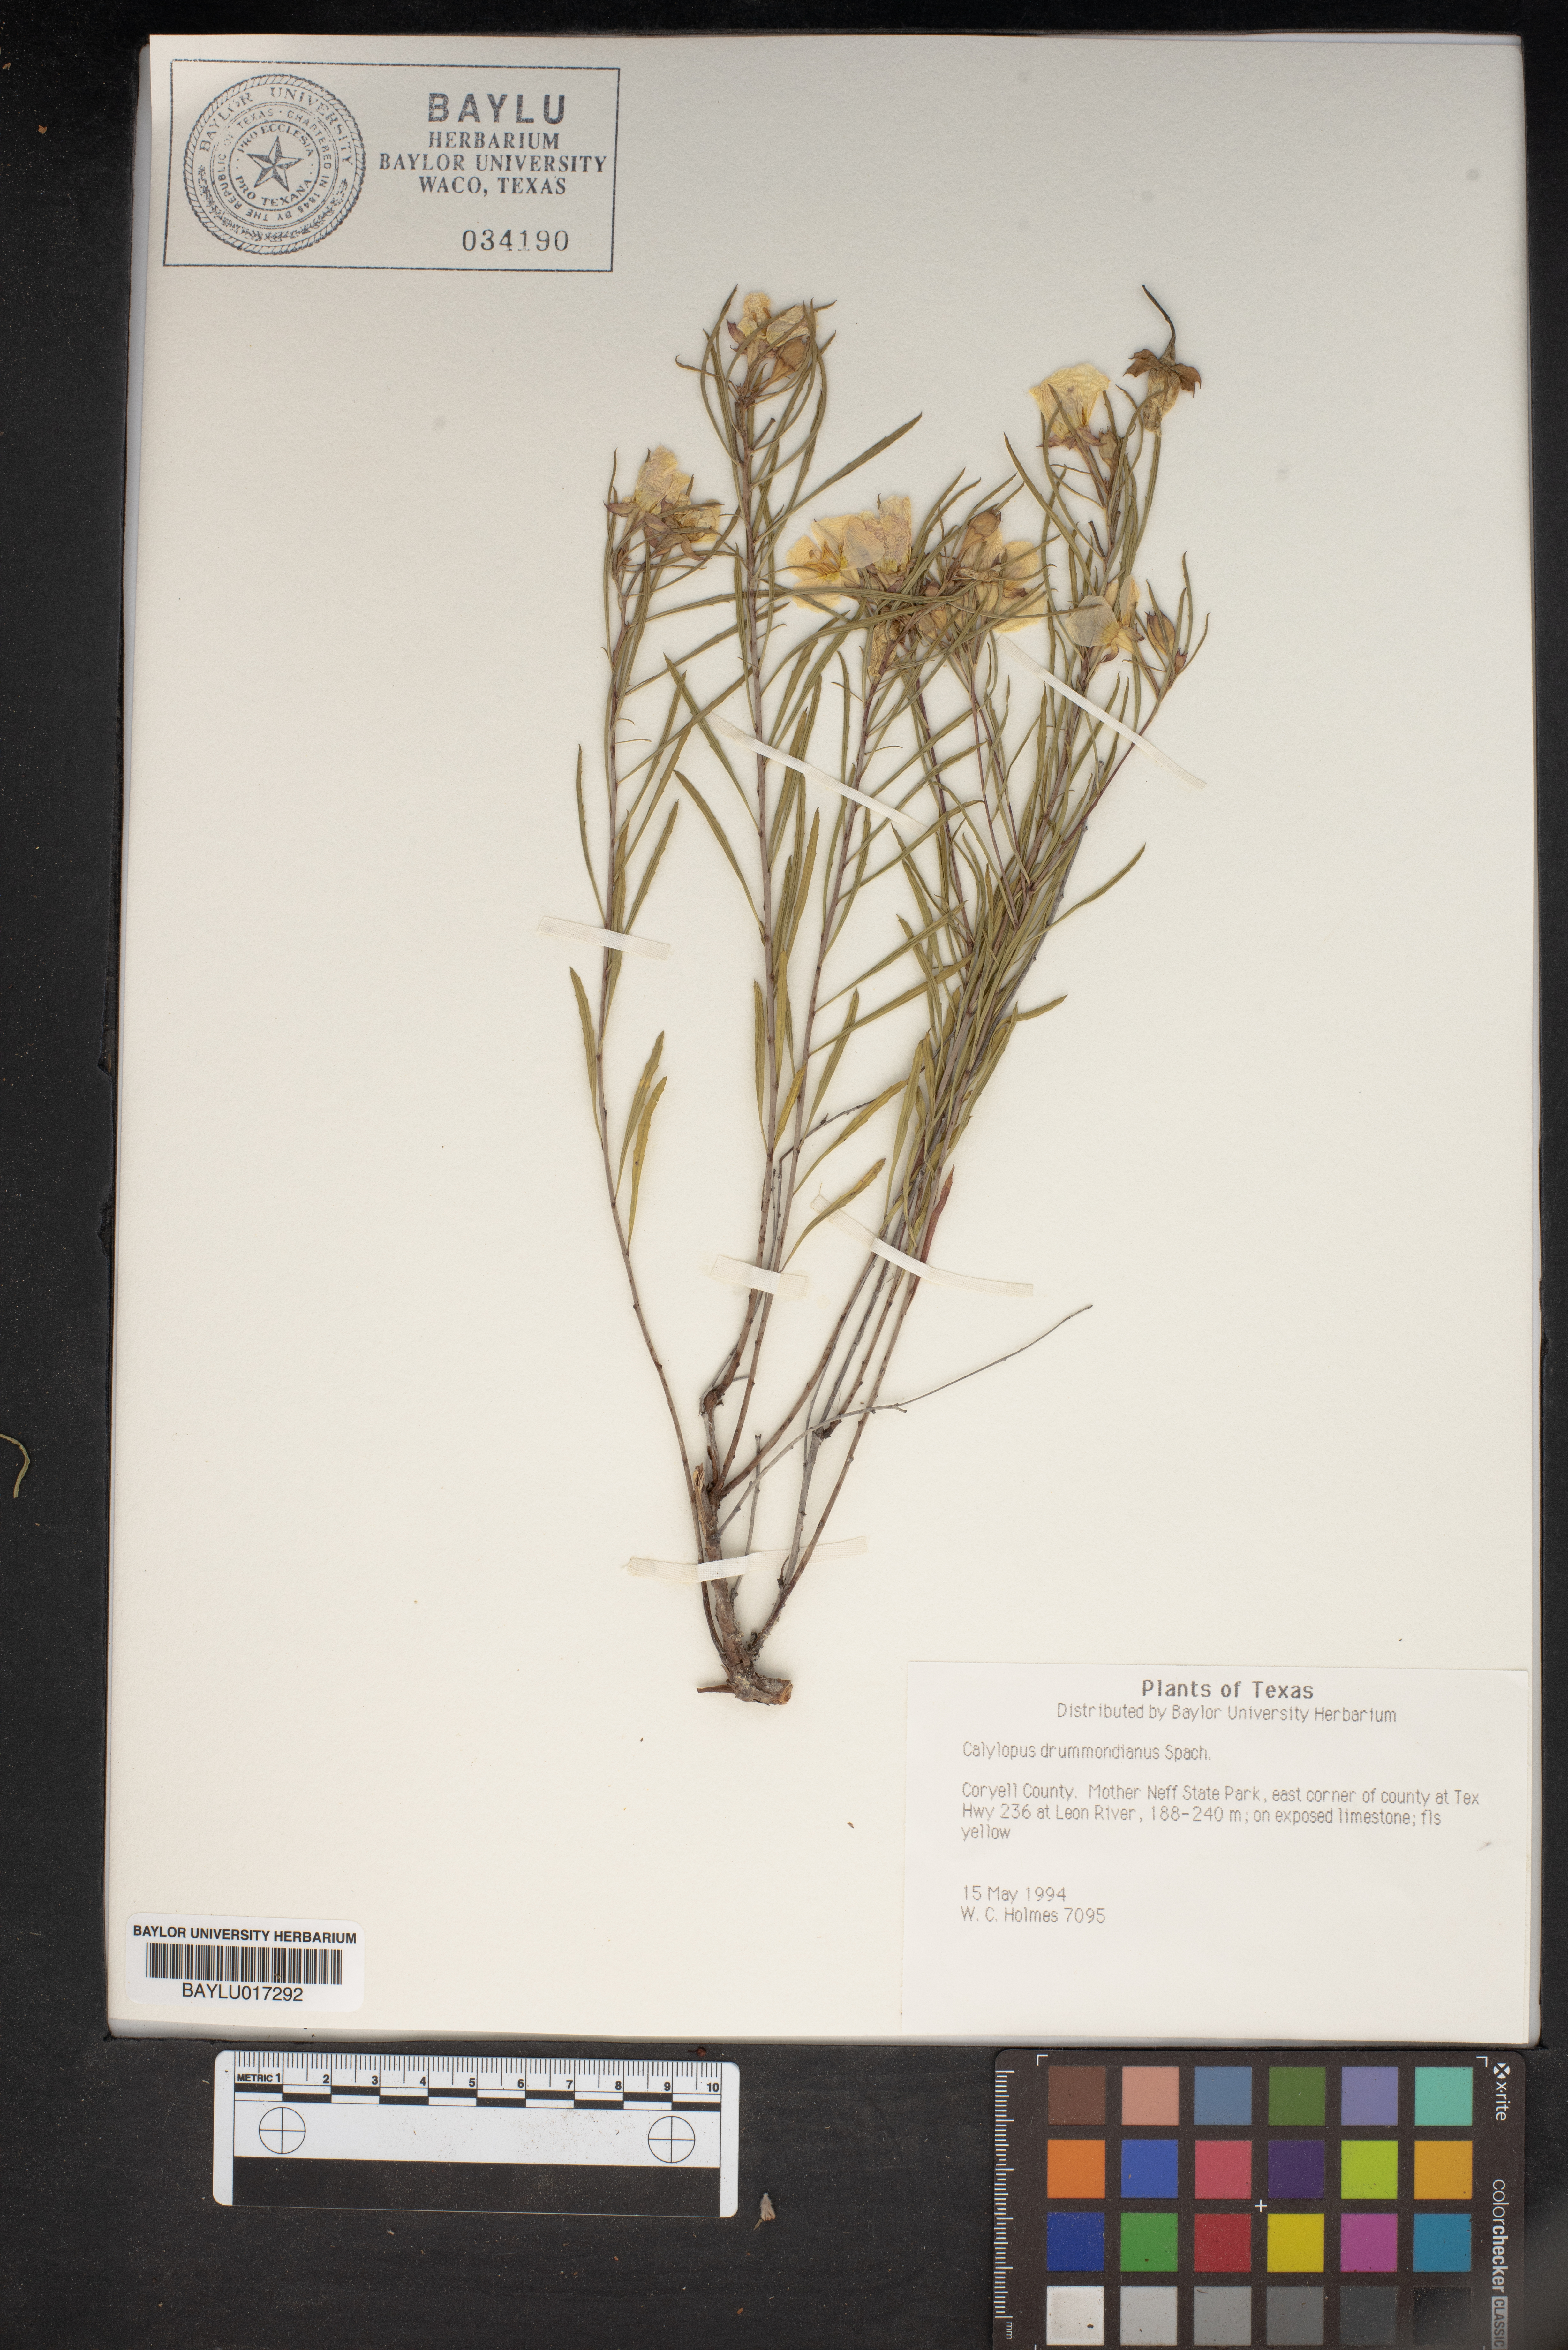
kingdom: Plantae
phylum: Tracheophyta
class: Magnoliopsida
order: Myrtales
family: Onagraceae
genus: Oenothera
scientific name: Oenothera serrulata
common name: Half-shrub calylophus
